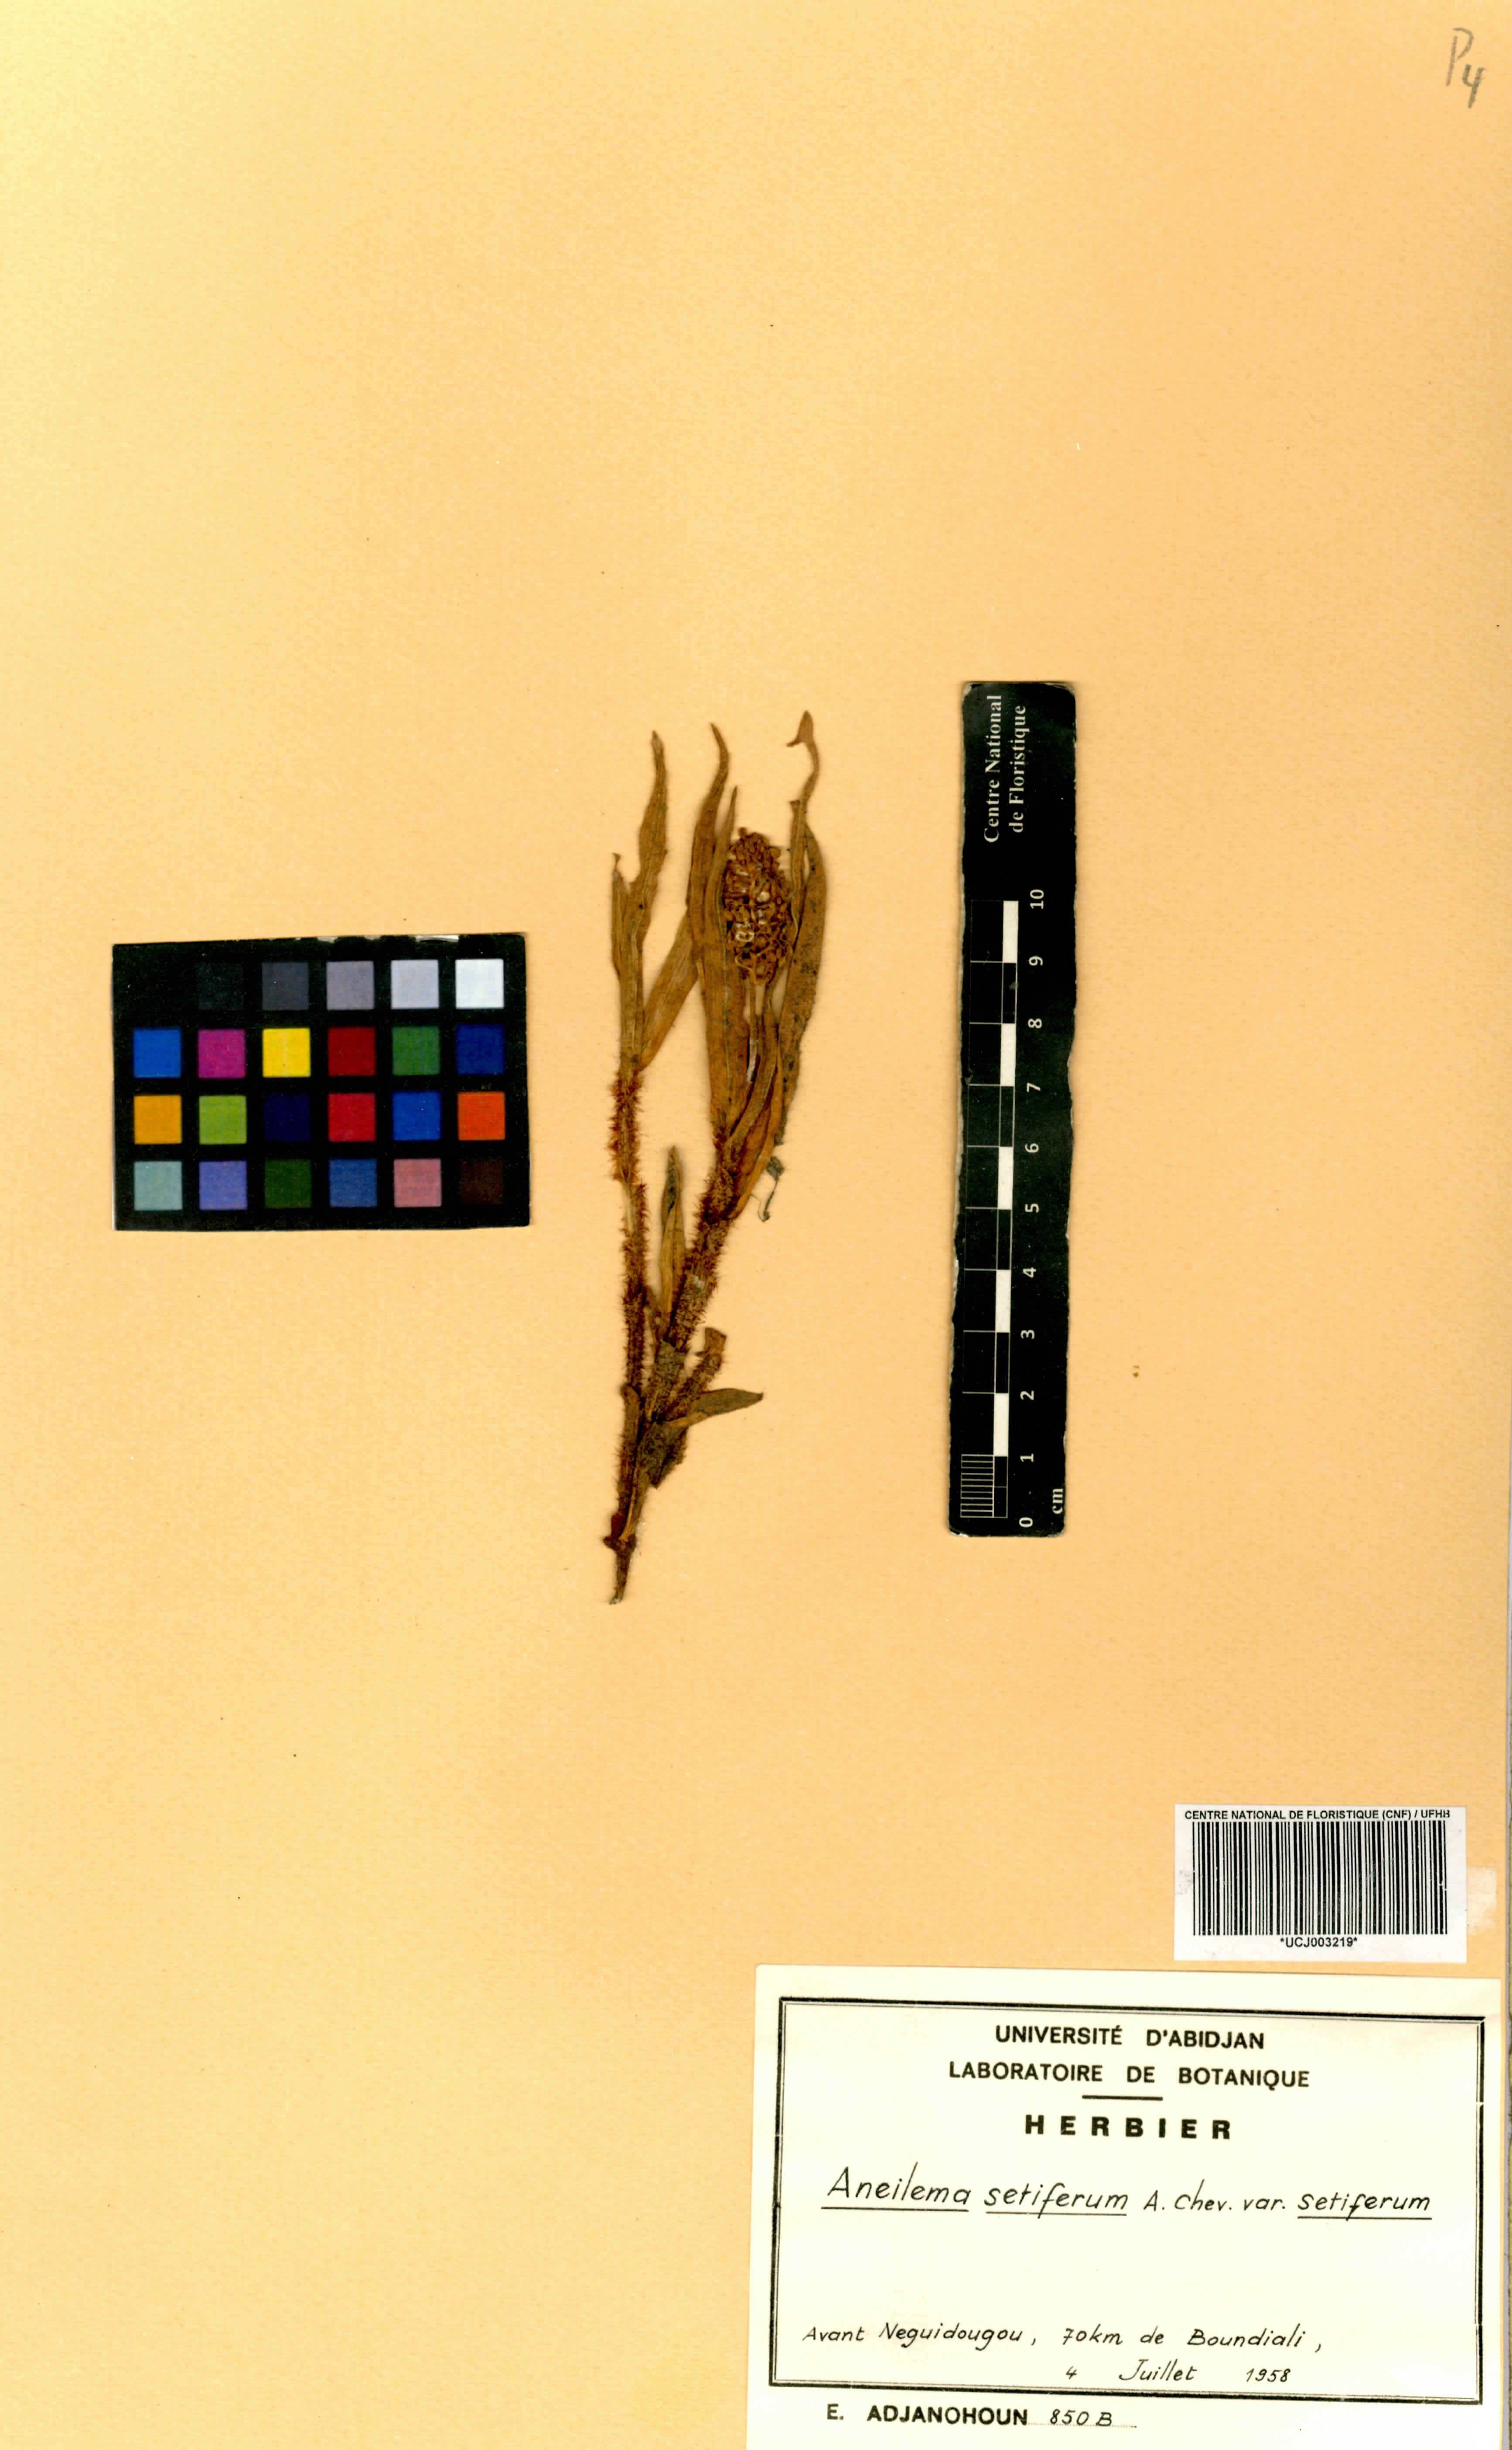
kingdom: Plantae
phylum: Tracheophyta
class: Liliopsida
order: Commelinales
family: Commelinaceae
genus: Aneilema
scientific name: Aneilema setiferum
